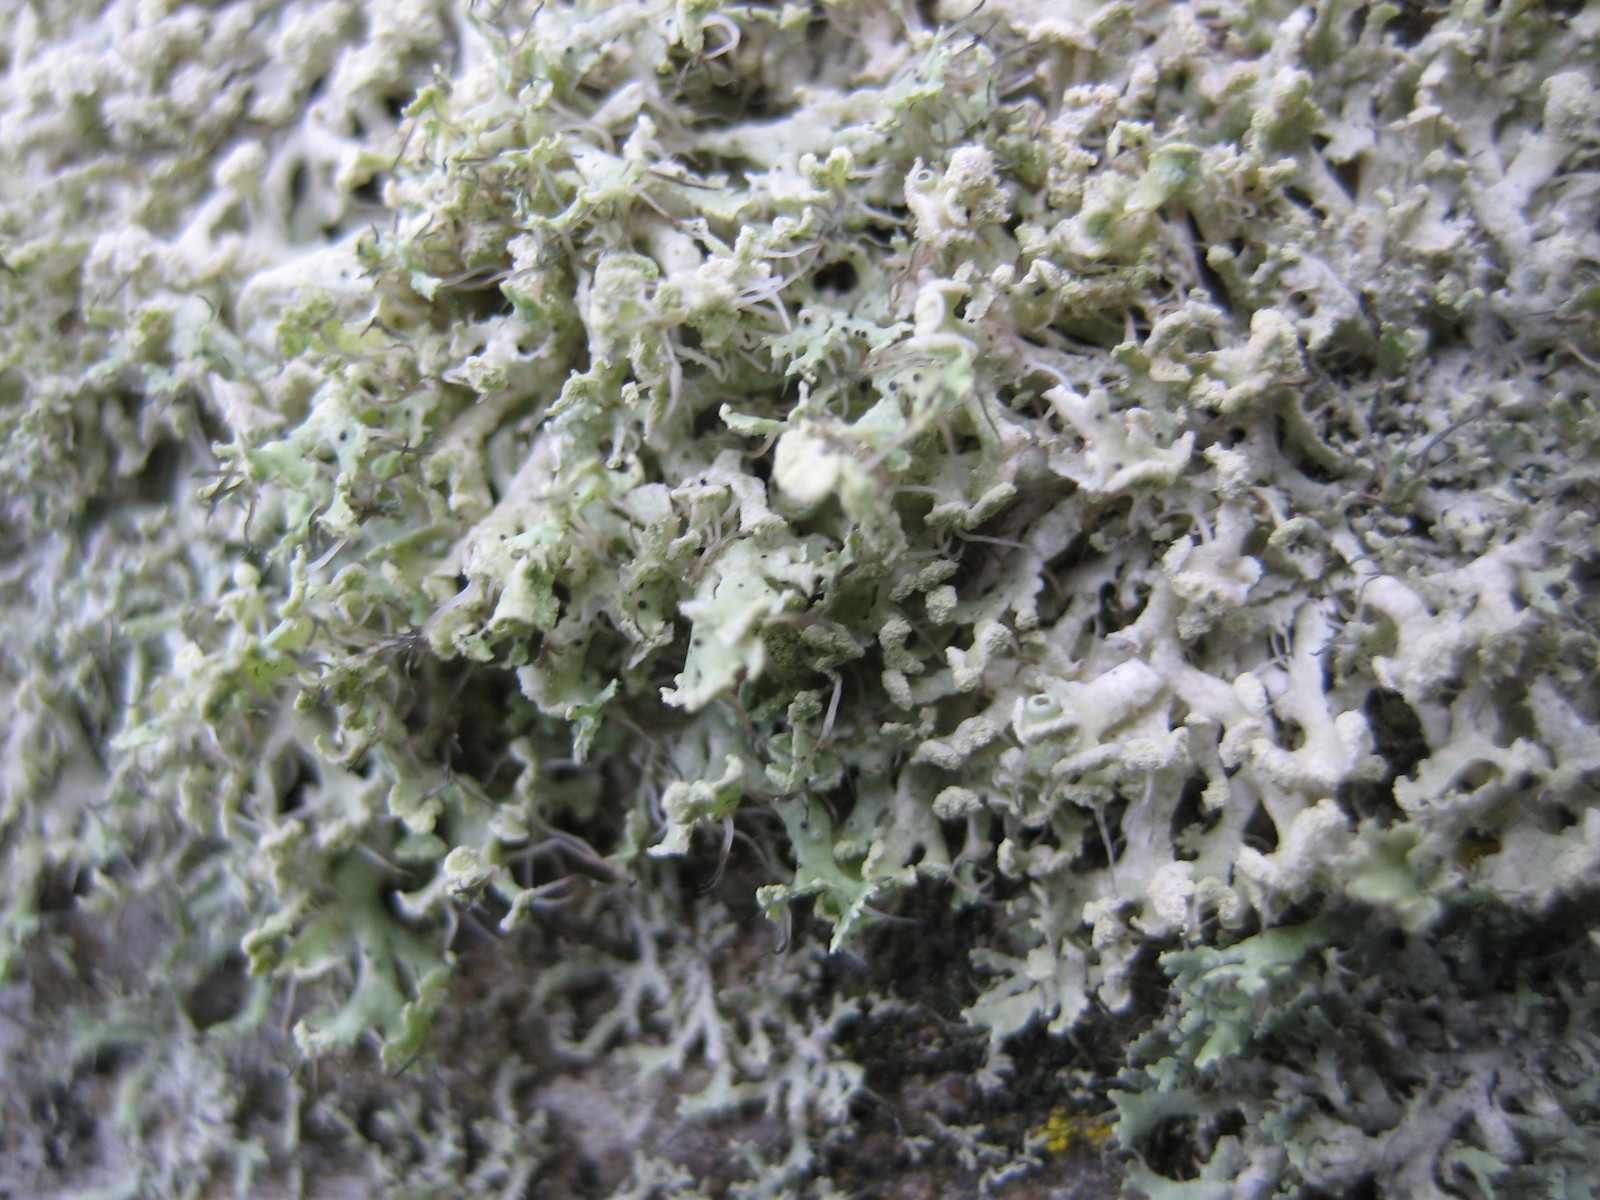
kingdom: Fungi
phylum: Ascomycota
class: Lecanoromycetes
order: Caliciales
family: Physciaceae
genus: Physcia
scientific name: Physcia tenella
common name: spæd rosetlav
